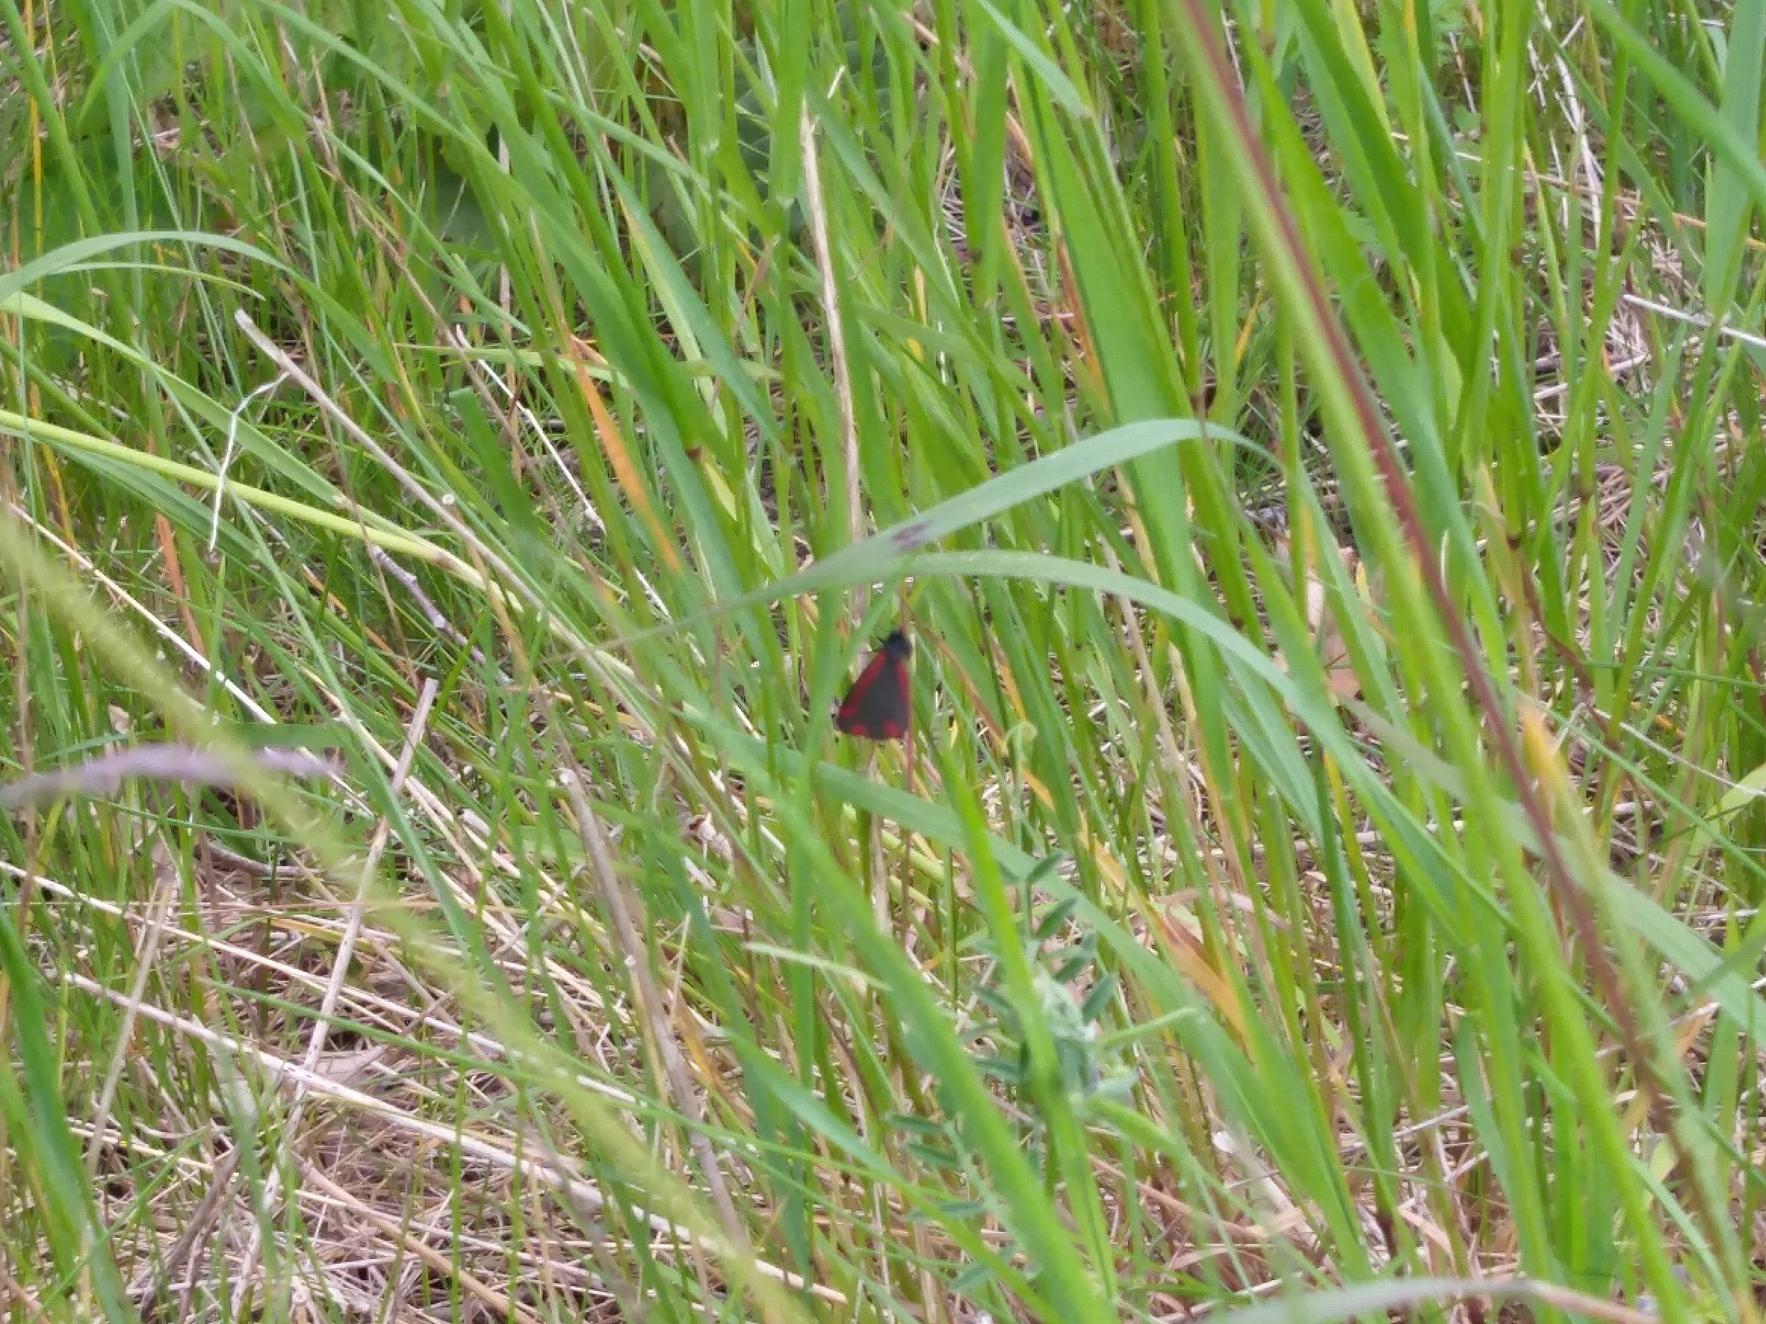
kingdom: Animalia
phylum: Arthropoda
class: Insecta
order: Lepidoptera
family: Erebidae
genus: Tyria
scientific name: Tyria jacobaeae
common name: Blodplet
